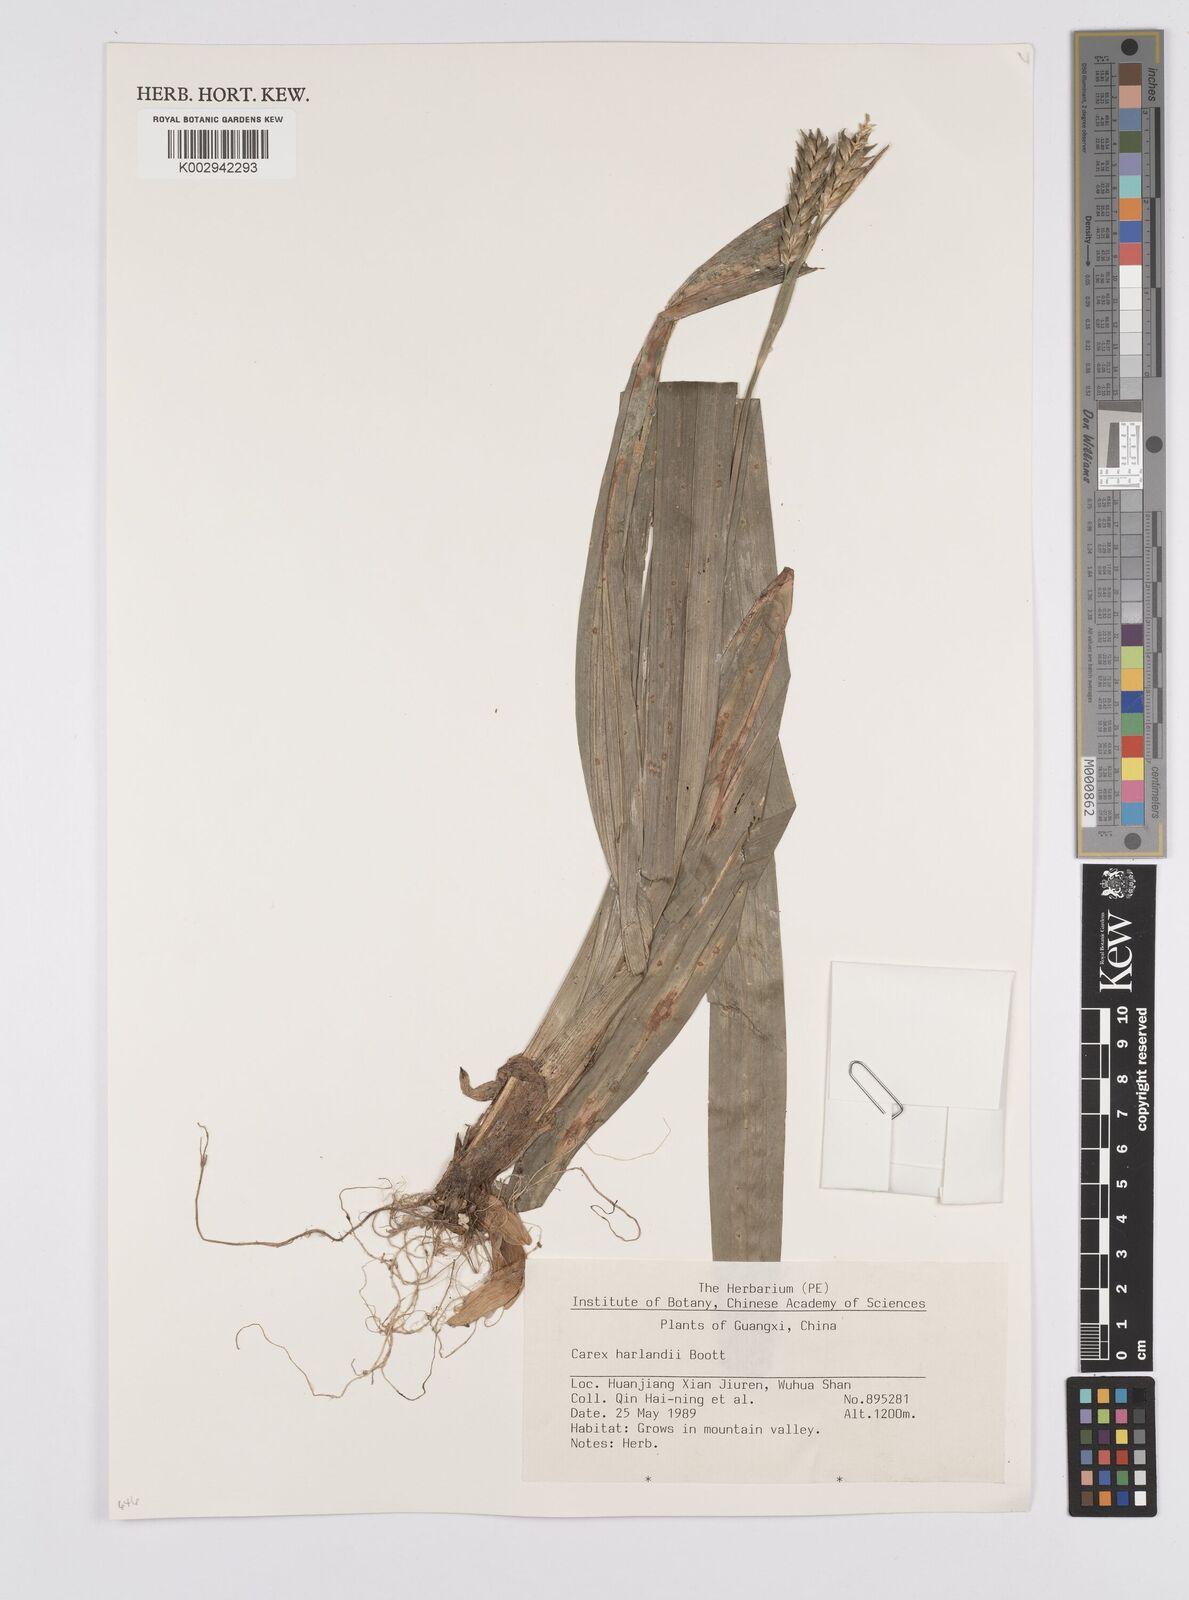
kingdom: Plantae
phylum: Tracheophyta
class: Liliopsida
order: Poales
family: Cyperaceae
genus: Carex
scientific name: Carex harlandii
